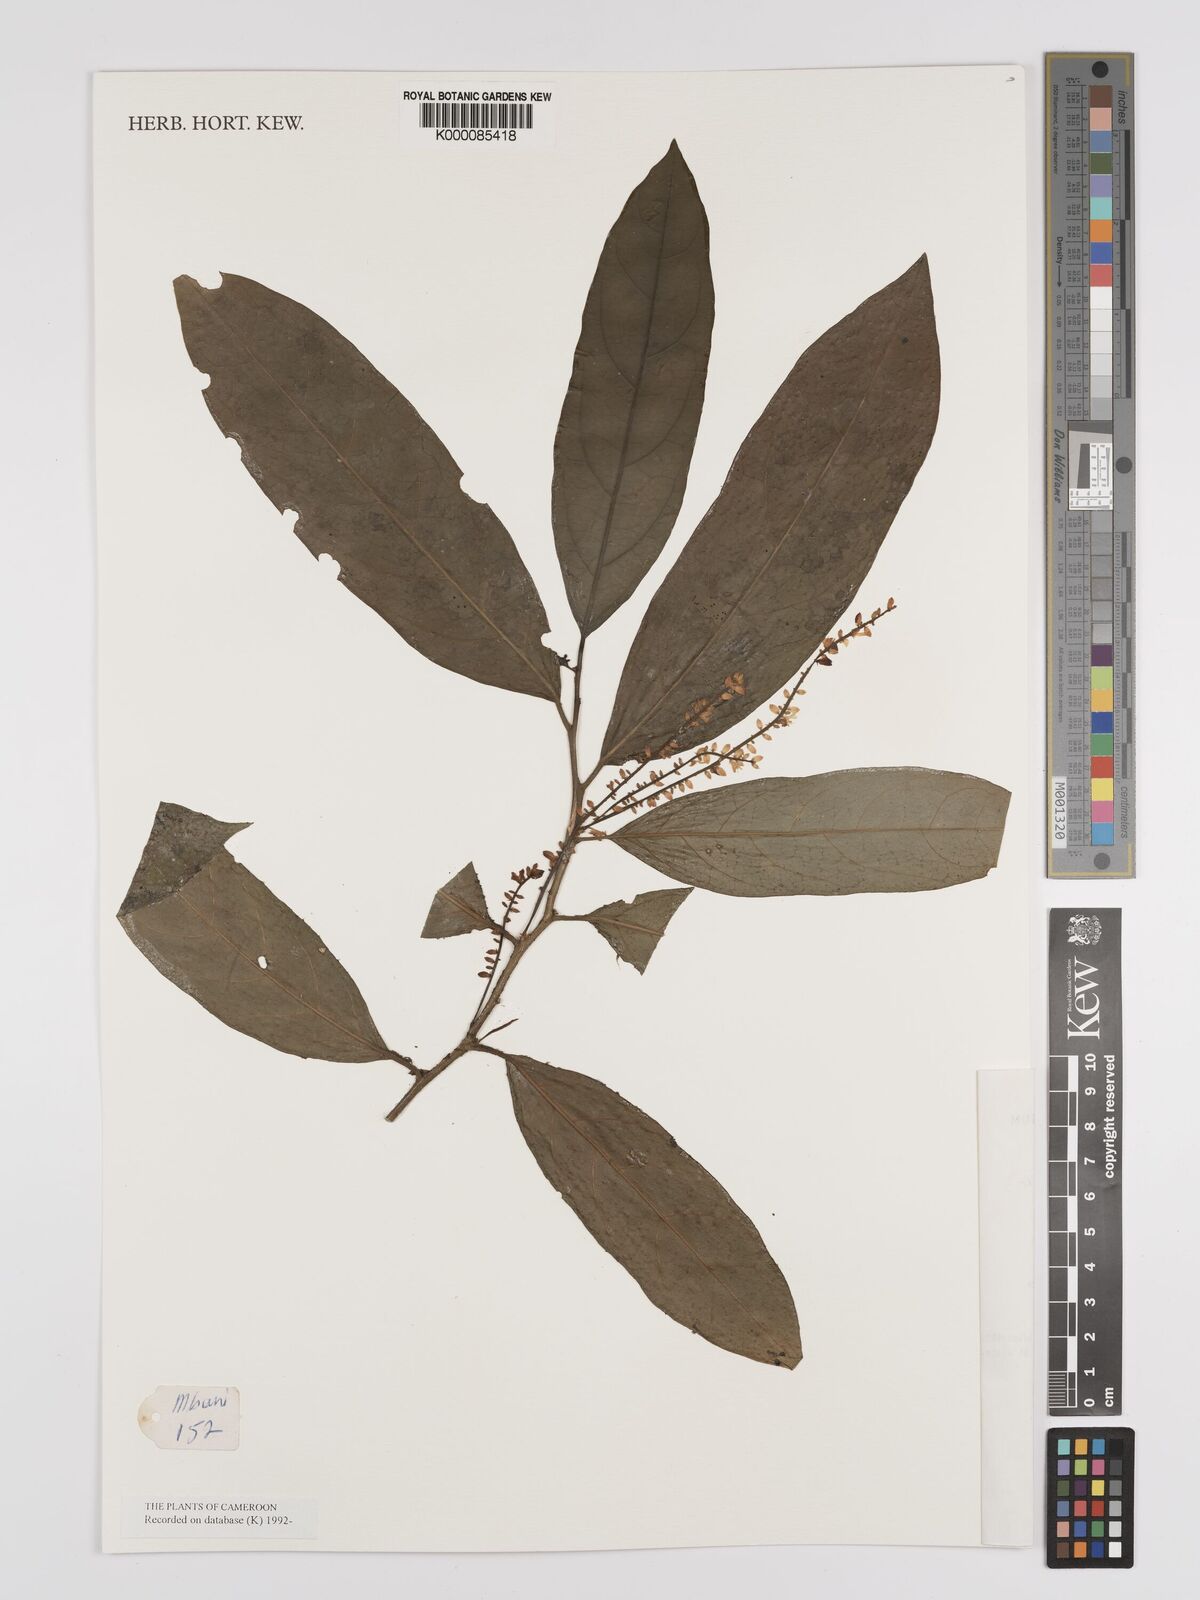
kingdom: Plantae
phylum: Tracheophyta
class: Magnoliopsida
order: Icacinales
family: Icacinaceae
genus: Vadensea
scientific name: Vadensea tenuifolia
